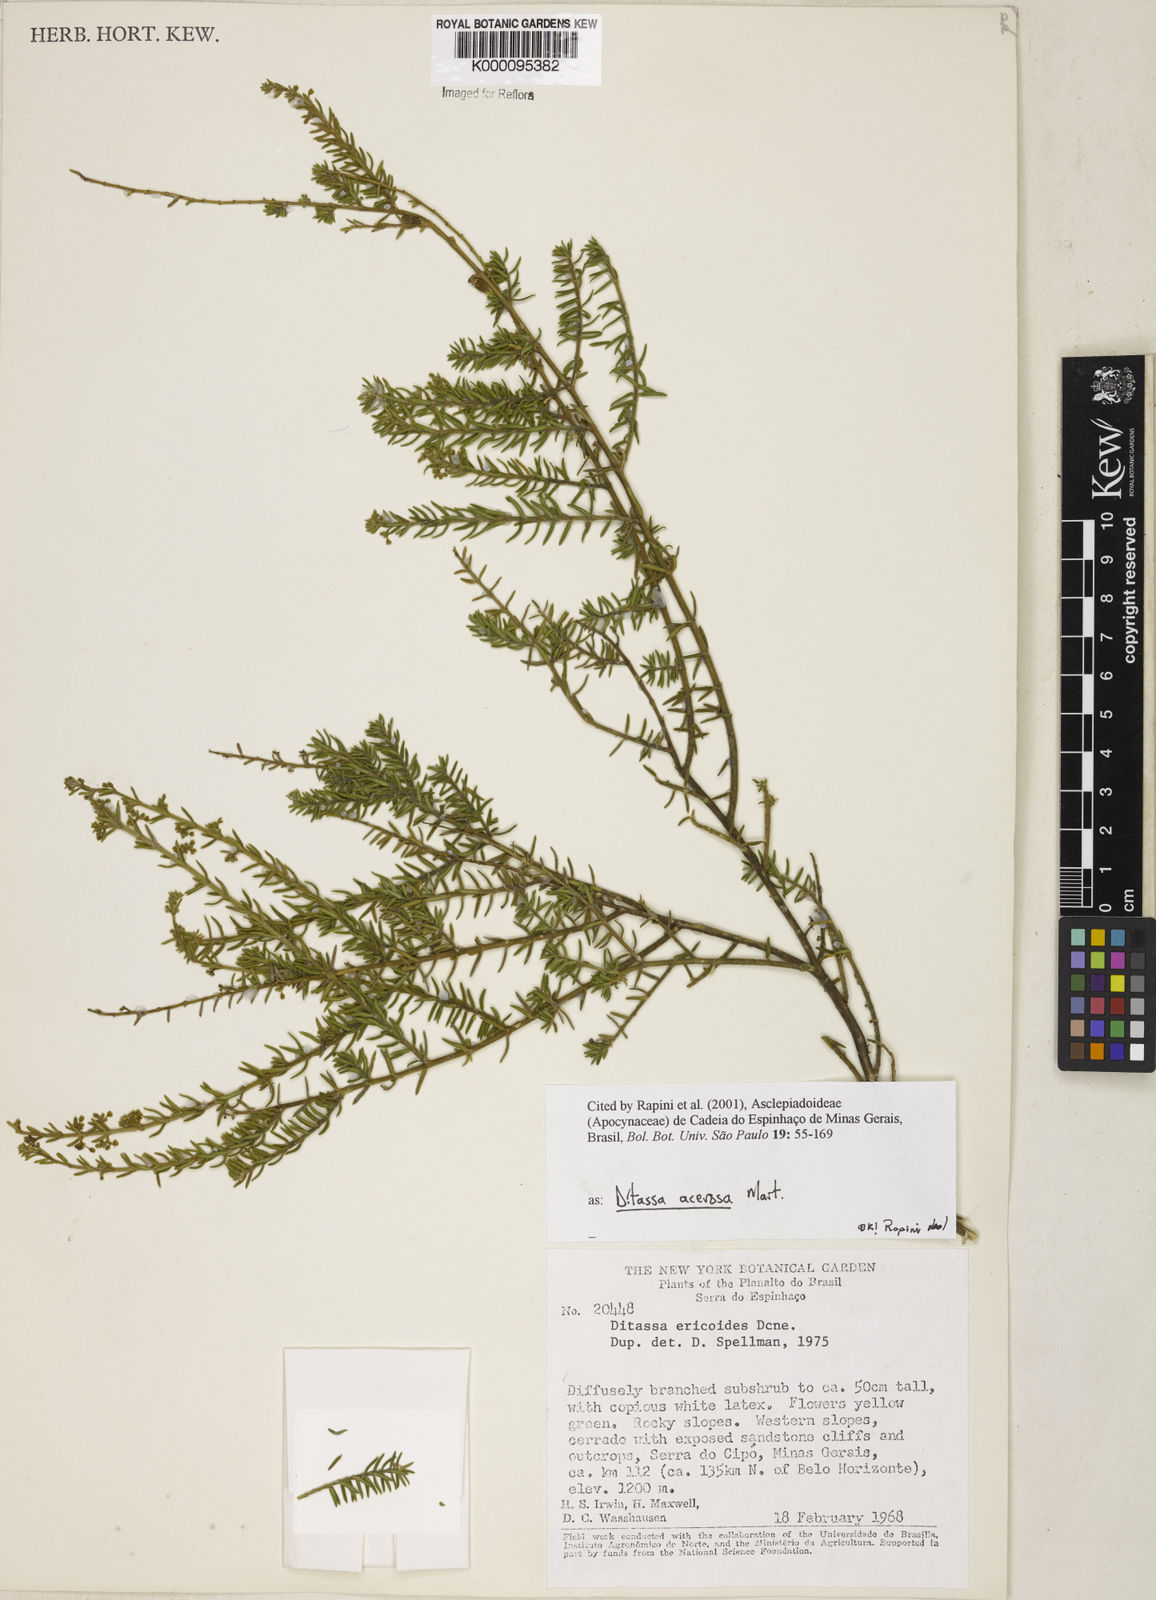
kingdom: Plantae
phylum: Tracheophyta
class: Magnoliopsida
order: Gentianales
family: Apocynaceae
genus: Minaria
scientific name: Minaria acerosa
